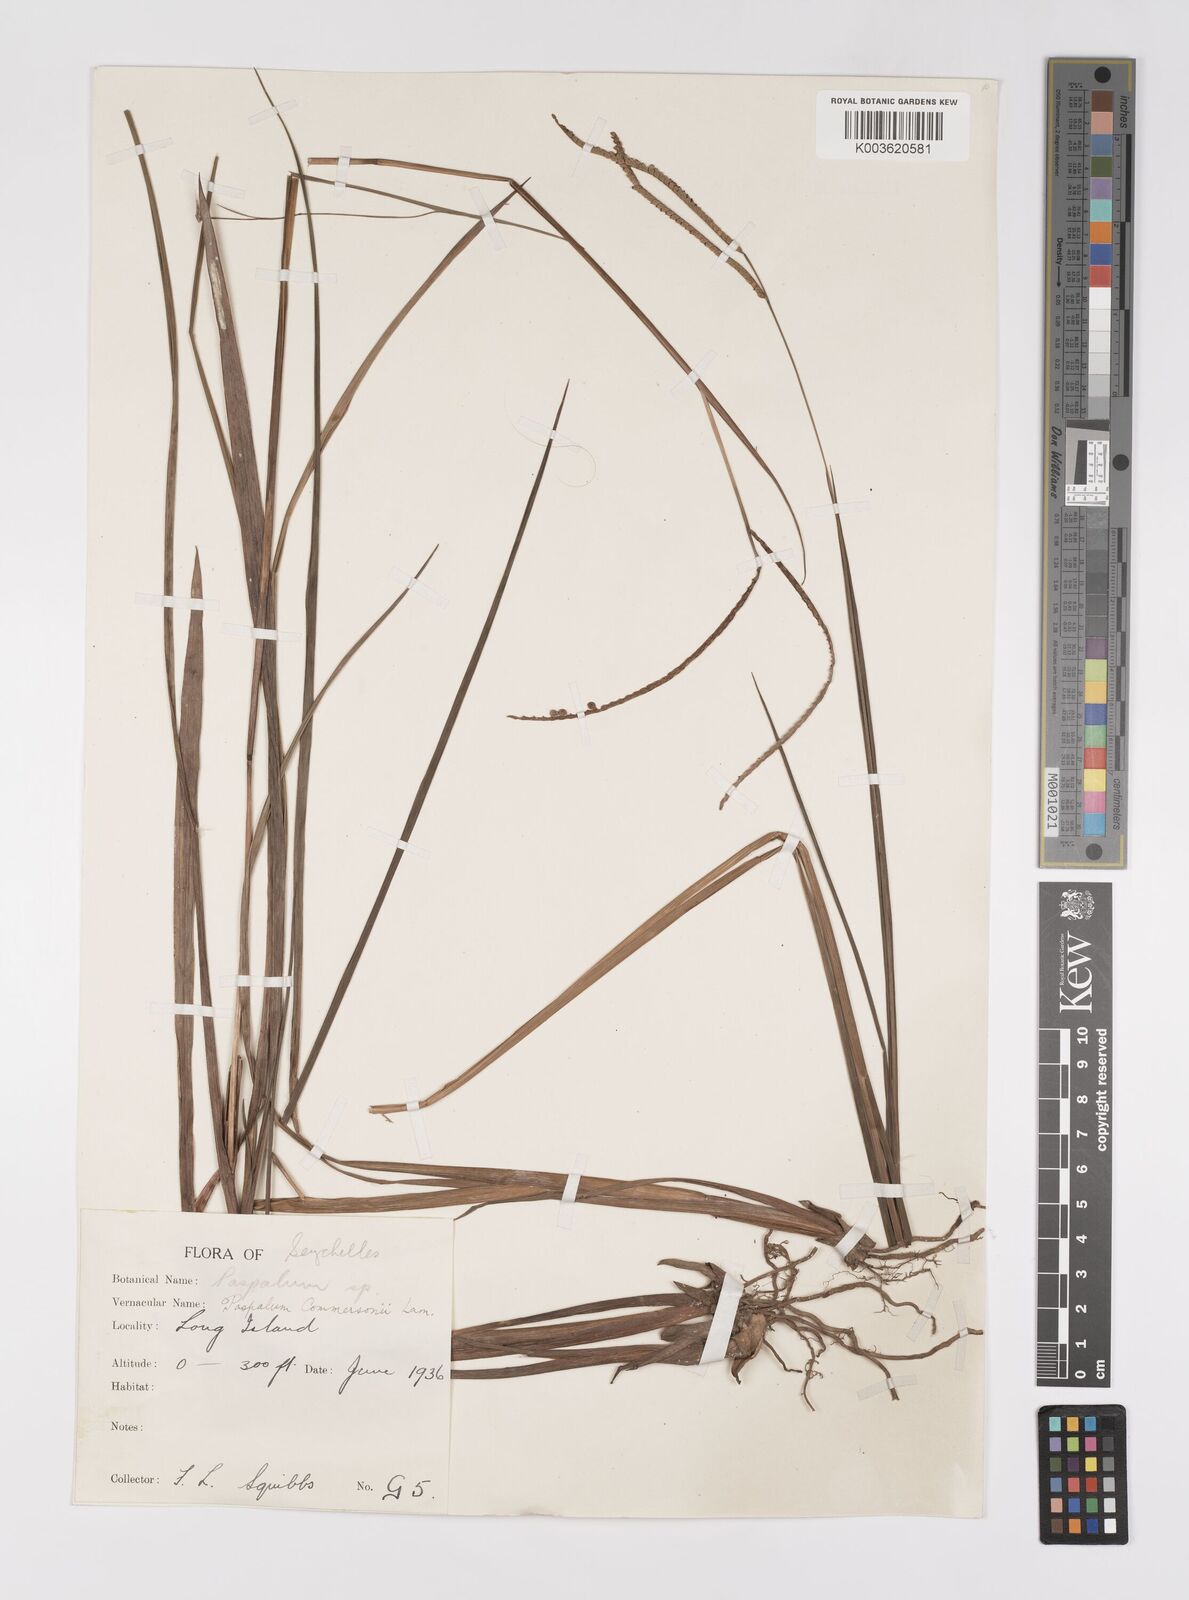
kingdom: Plantae
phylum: Tracheophyta
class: Liliopsida
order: Poales
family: Poaceae
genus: Paspalum
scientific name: Paspalum scrobiculatum
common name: Kodo millet
